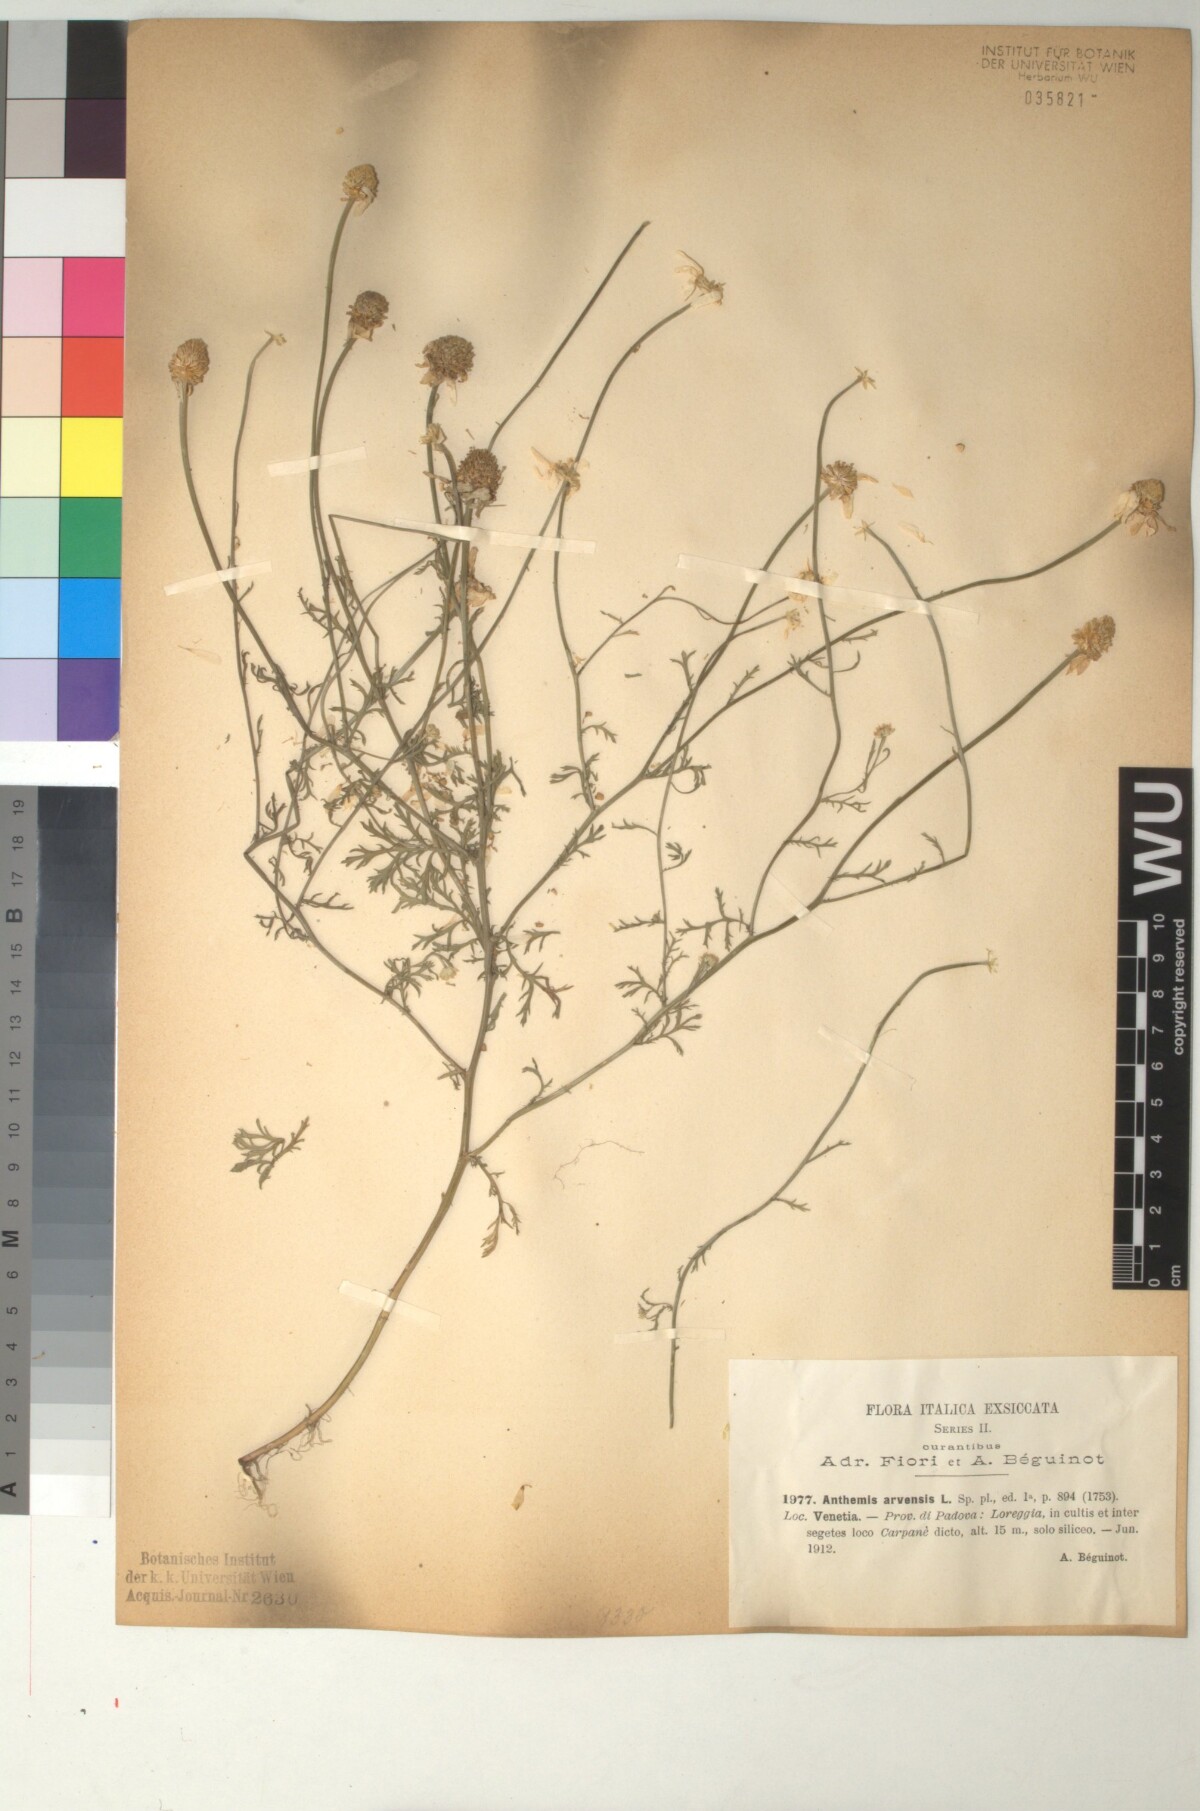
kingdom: Plantae
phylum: Tracheophyta
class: Magnoliopsida
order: Asterales
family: Asteraceae
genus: Anthemis
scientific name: Anthemis arvensis
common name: Corn chamomile
